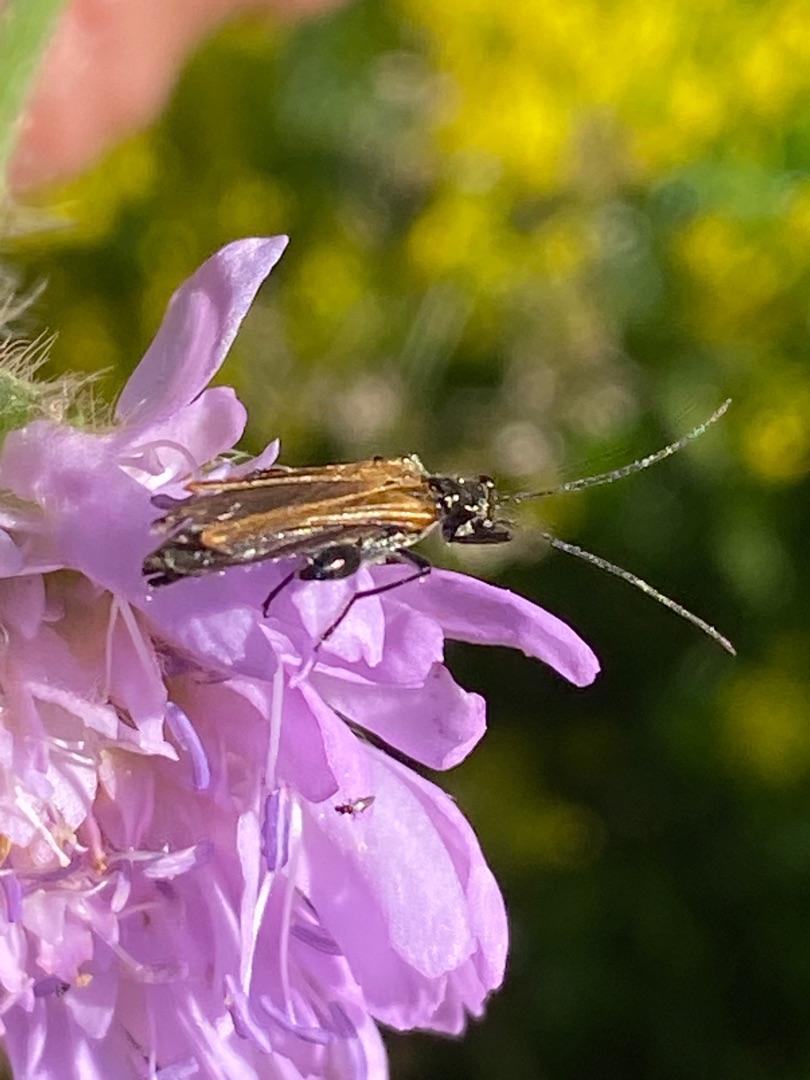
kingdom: Animalia
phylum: Arthropoda
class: Insecta
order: Coleoptera
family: Oedemeridae
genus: Oedemera
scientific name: Oedemera femorata
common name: Gulvinget solbille
